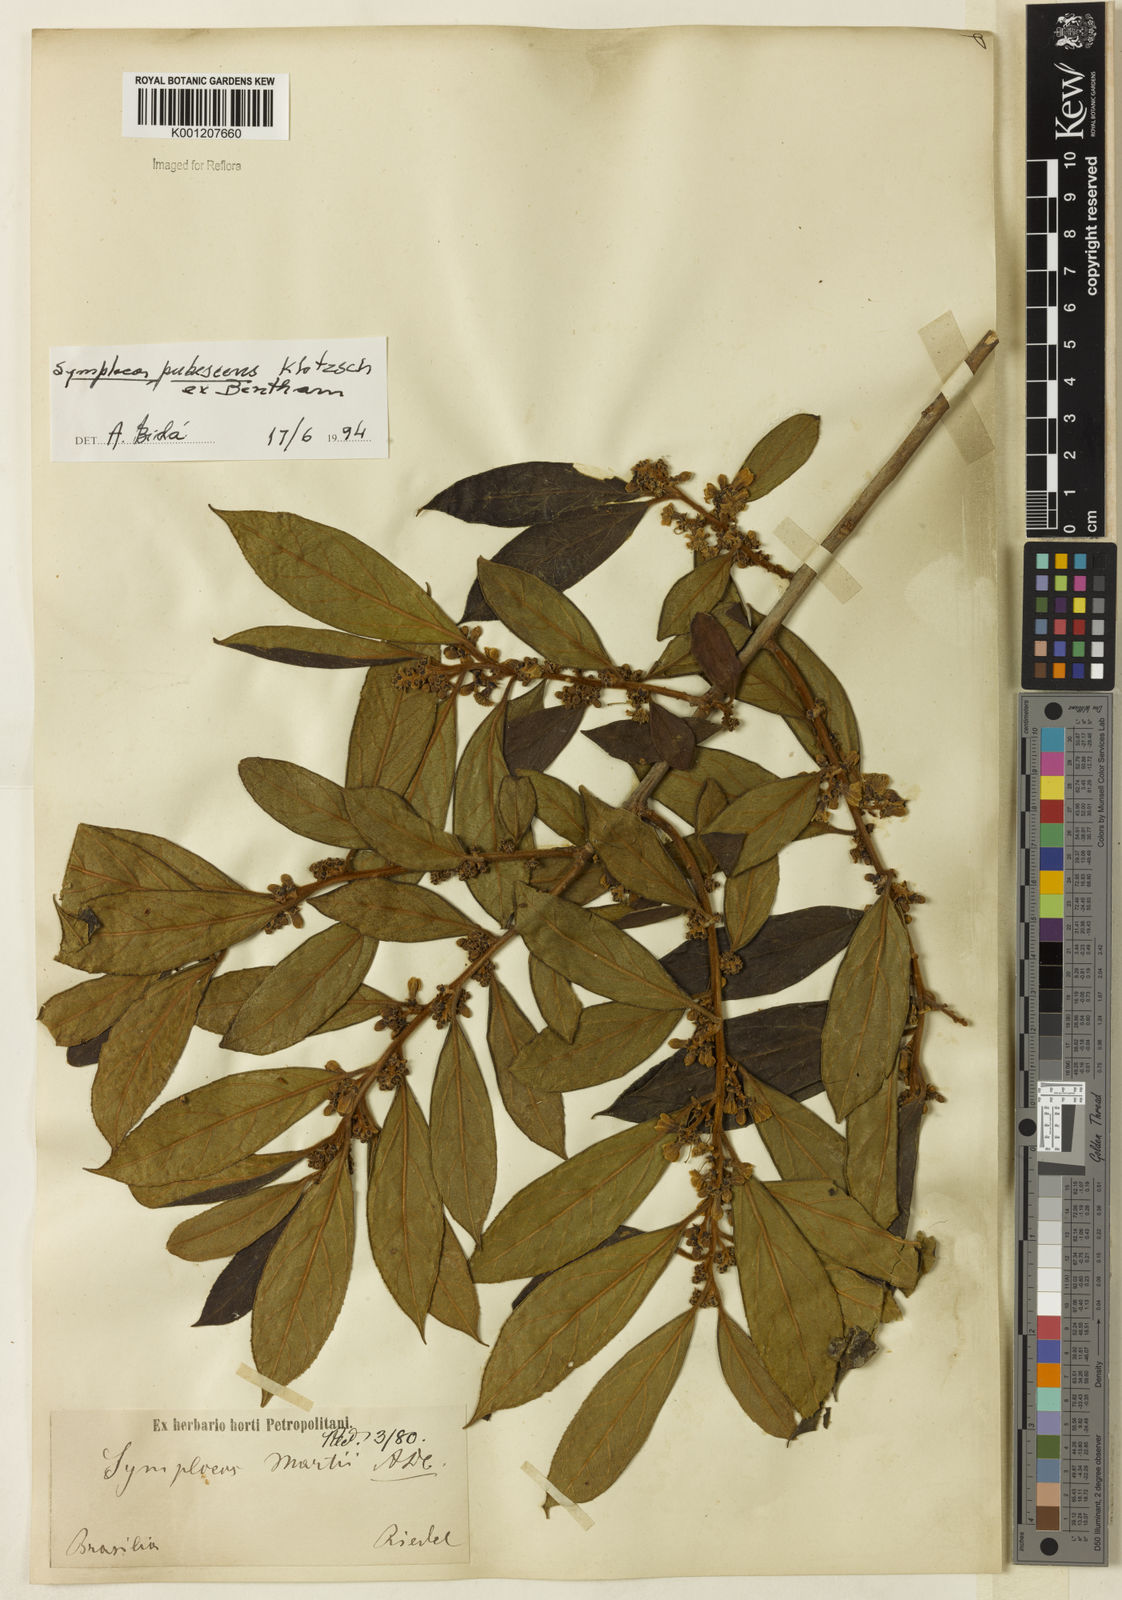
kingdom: Plantae
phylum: Tracheophyta
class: Magnoliopsida
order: Ericales
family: Symplocaceae
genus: Symplocos
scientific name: Symplocos pubescens
